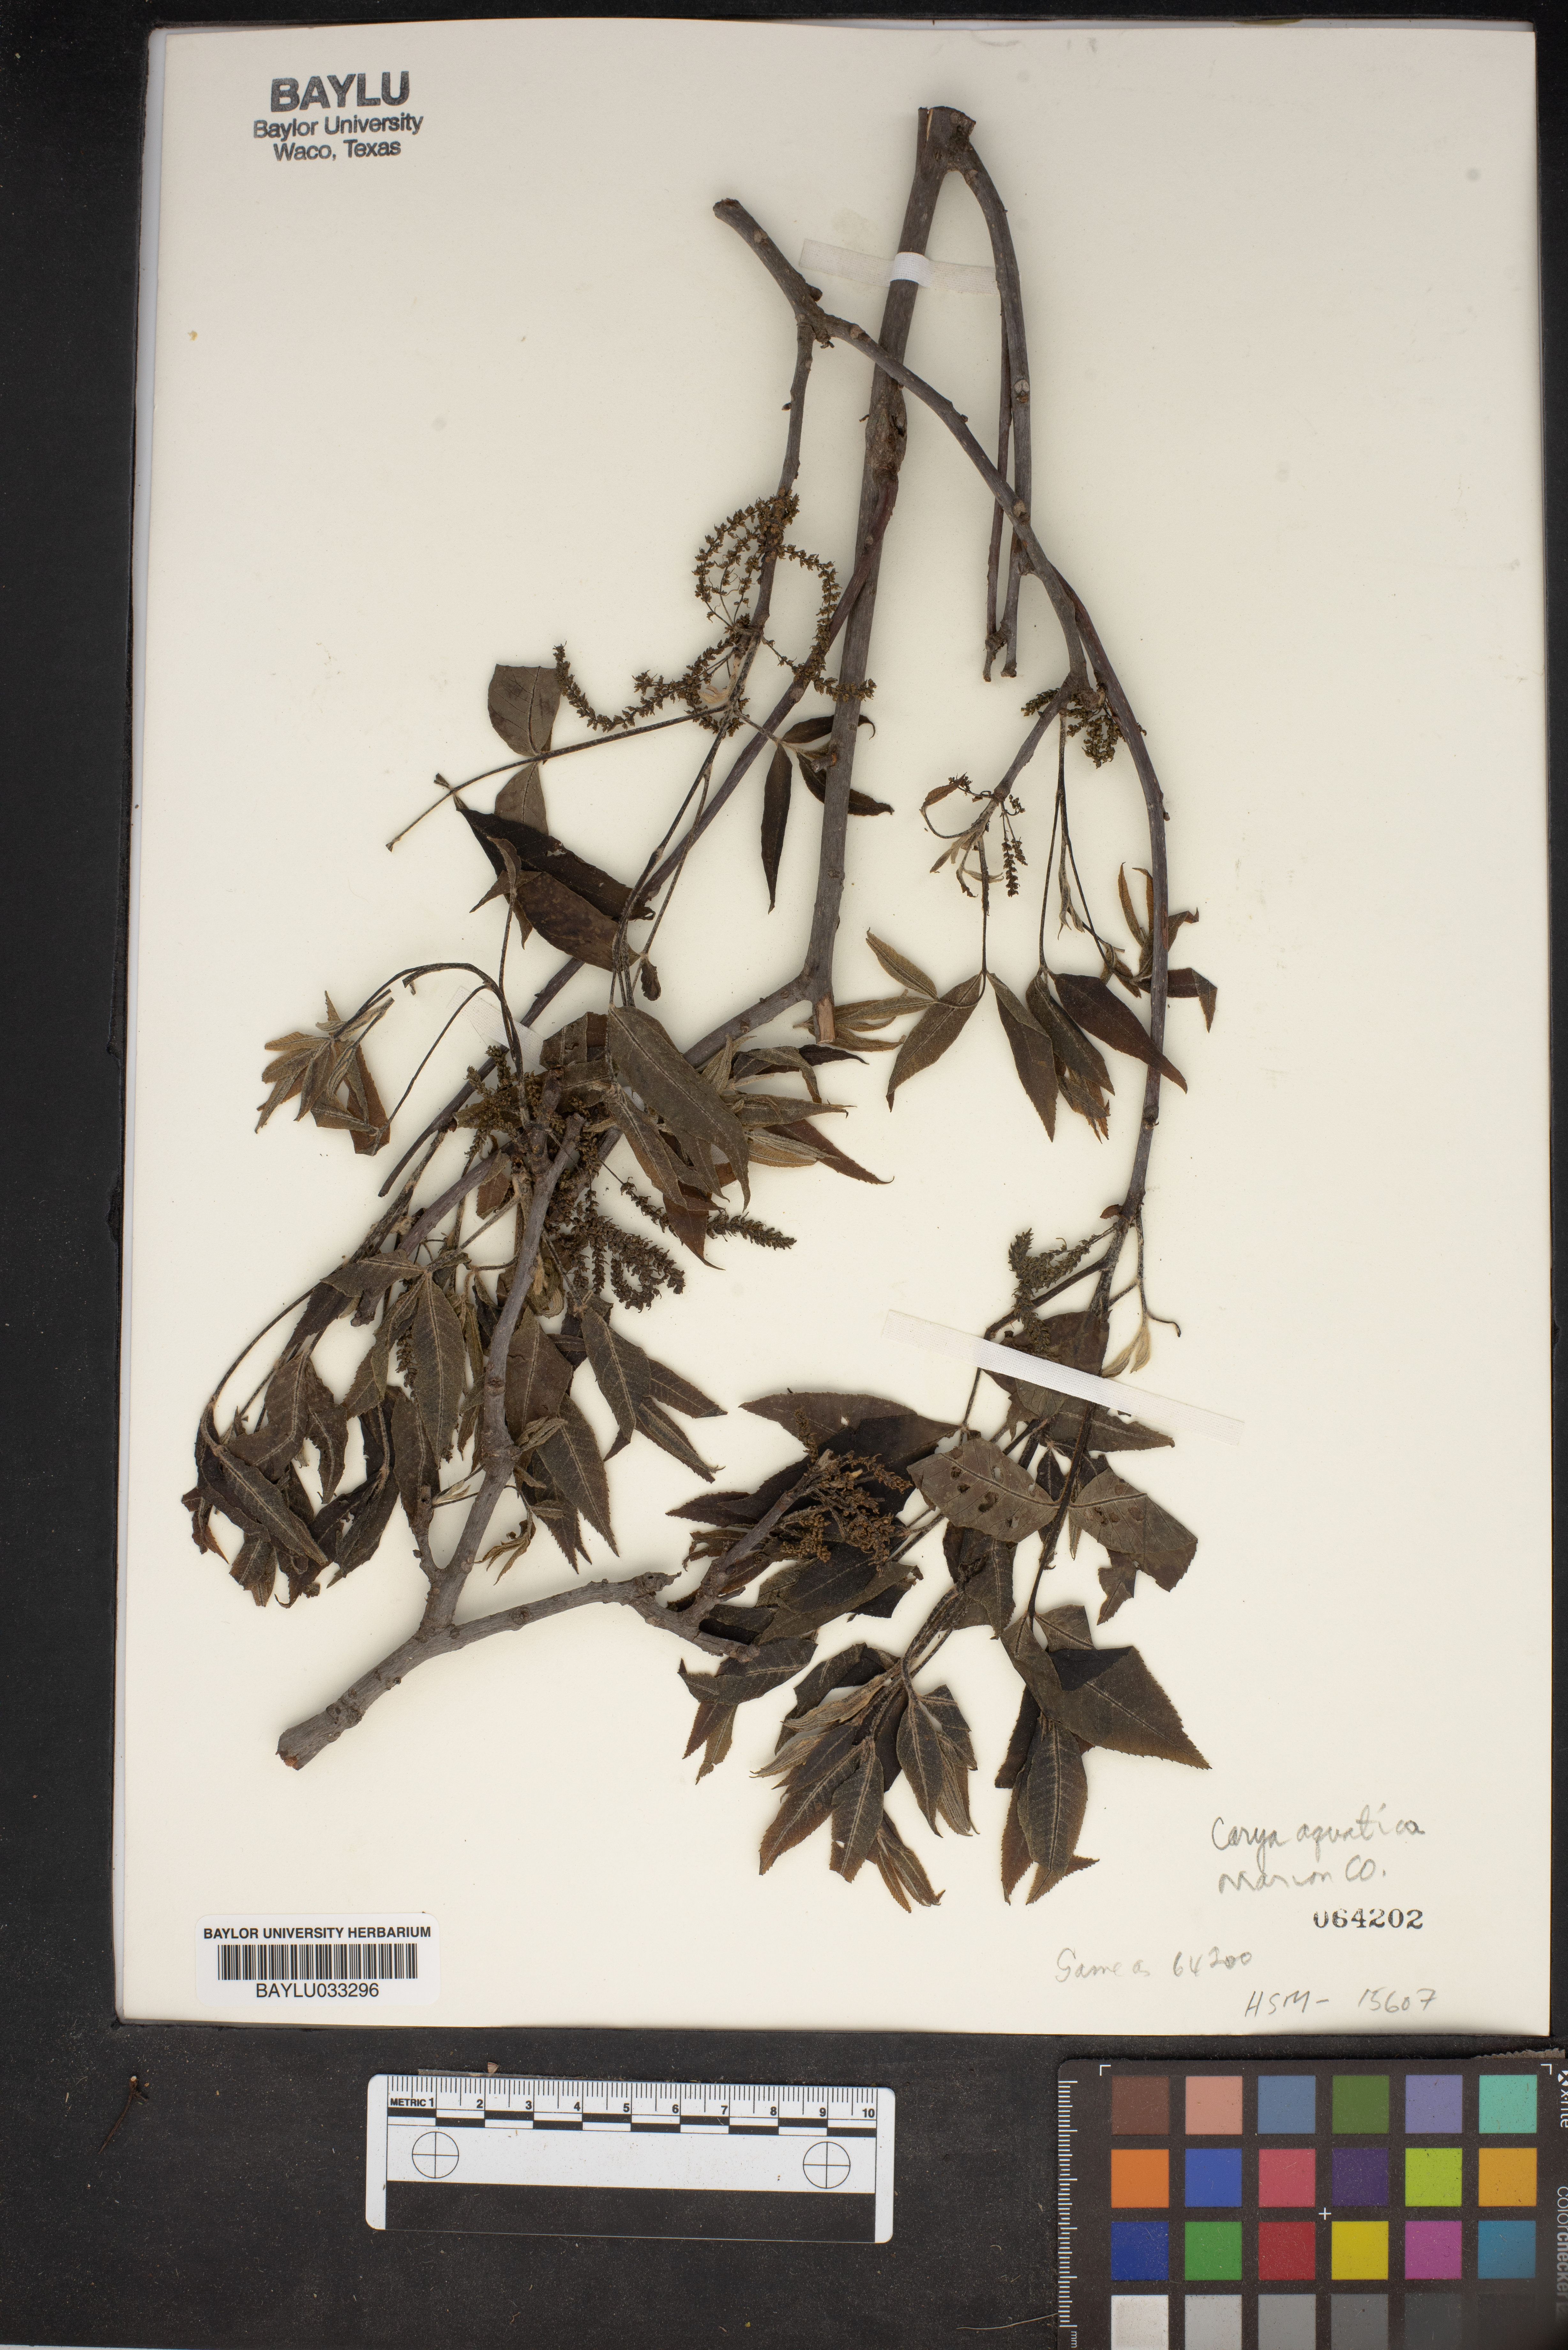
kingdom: Plantae
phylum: Tracheophyta
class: Magnoliopsida
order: Fagales
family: Juglandaceae
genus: Carya
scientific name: Carya aquatica
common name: Water hickory
